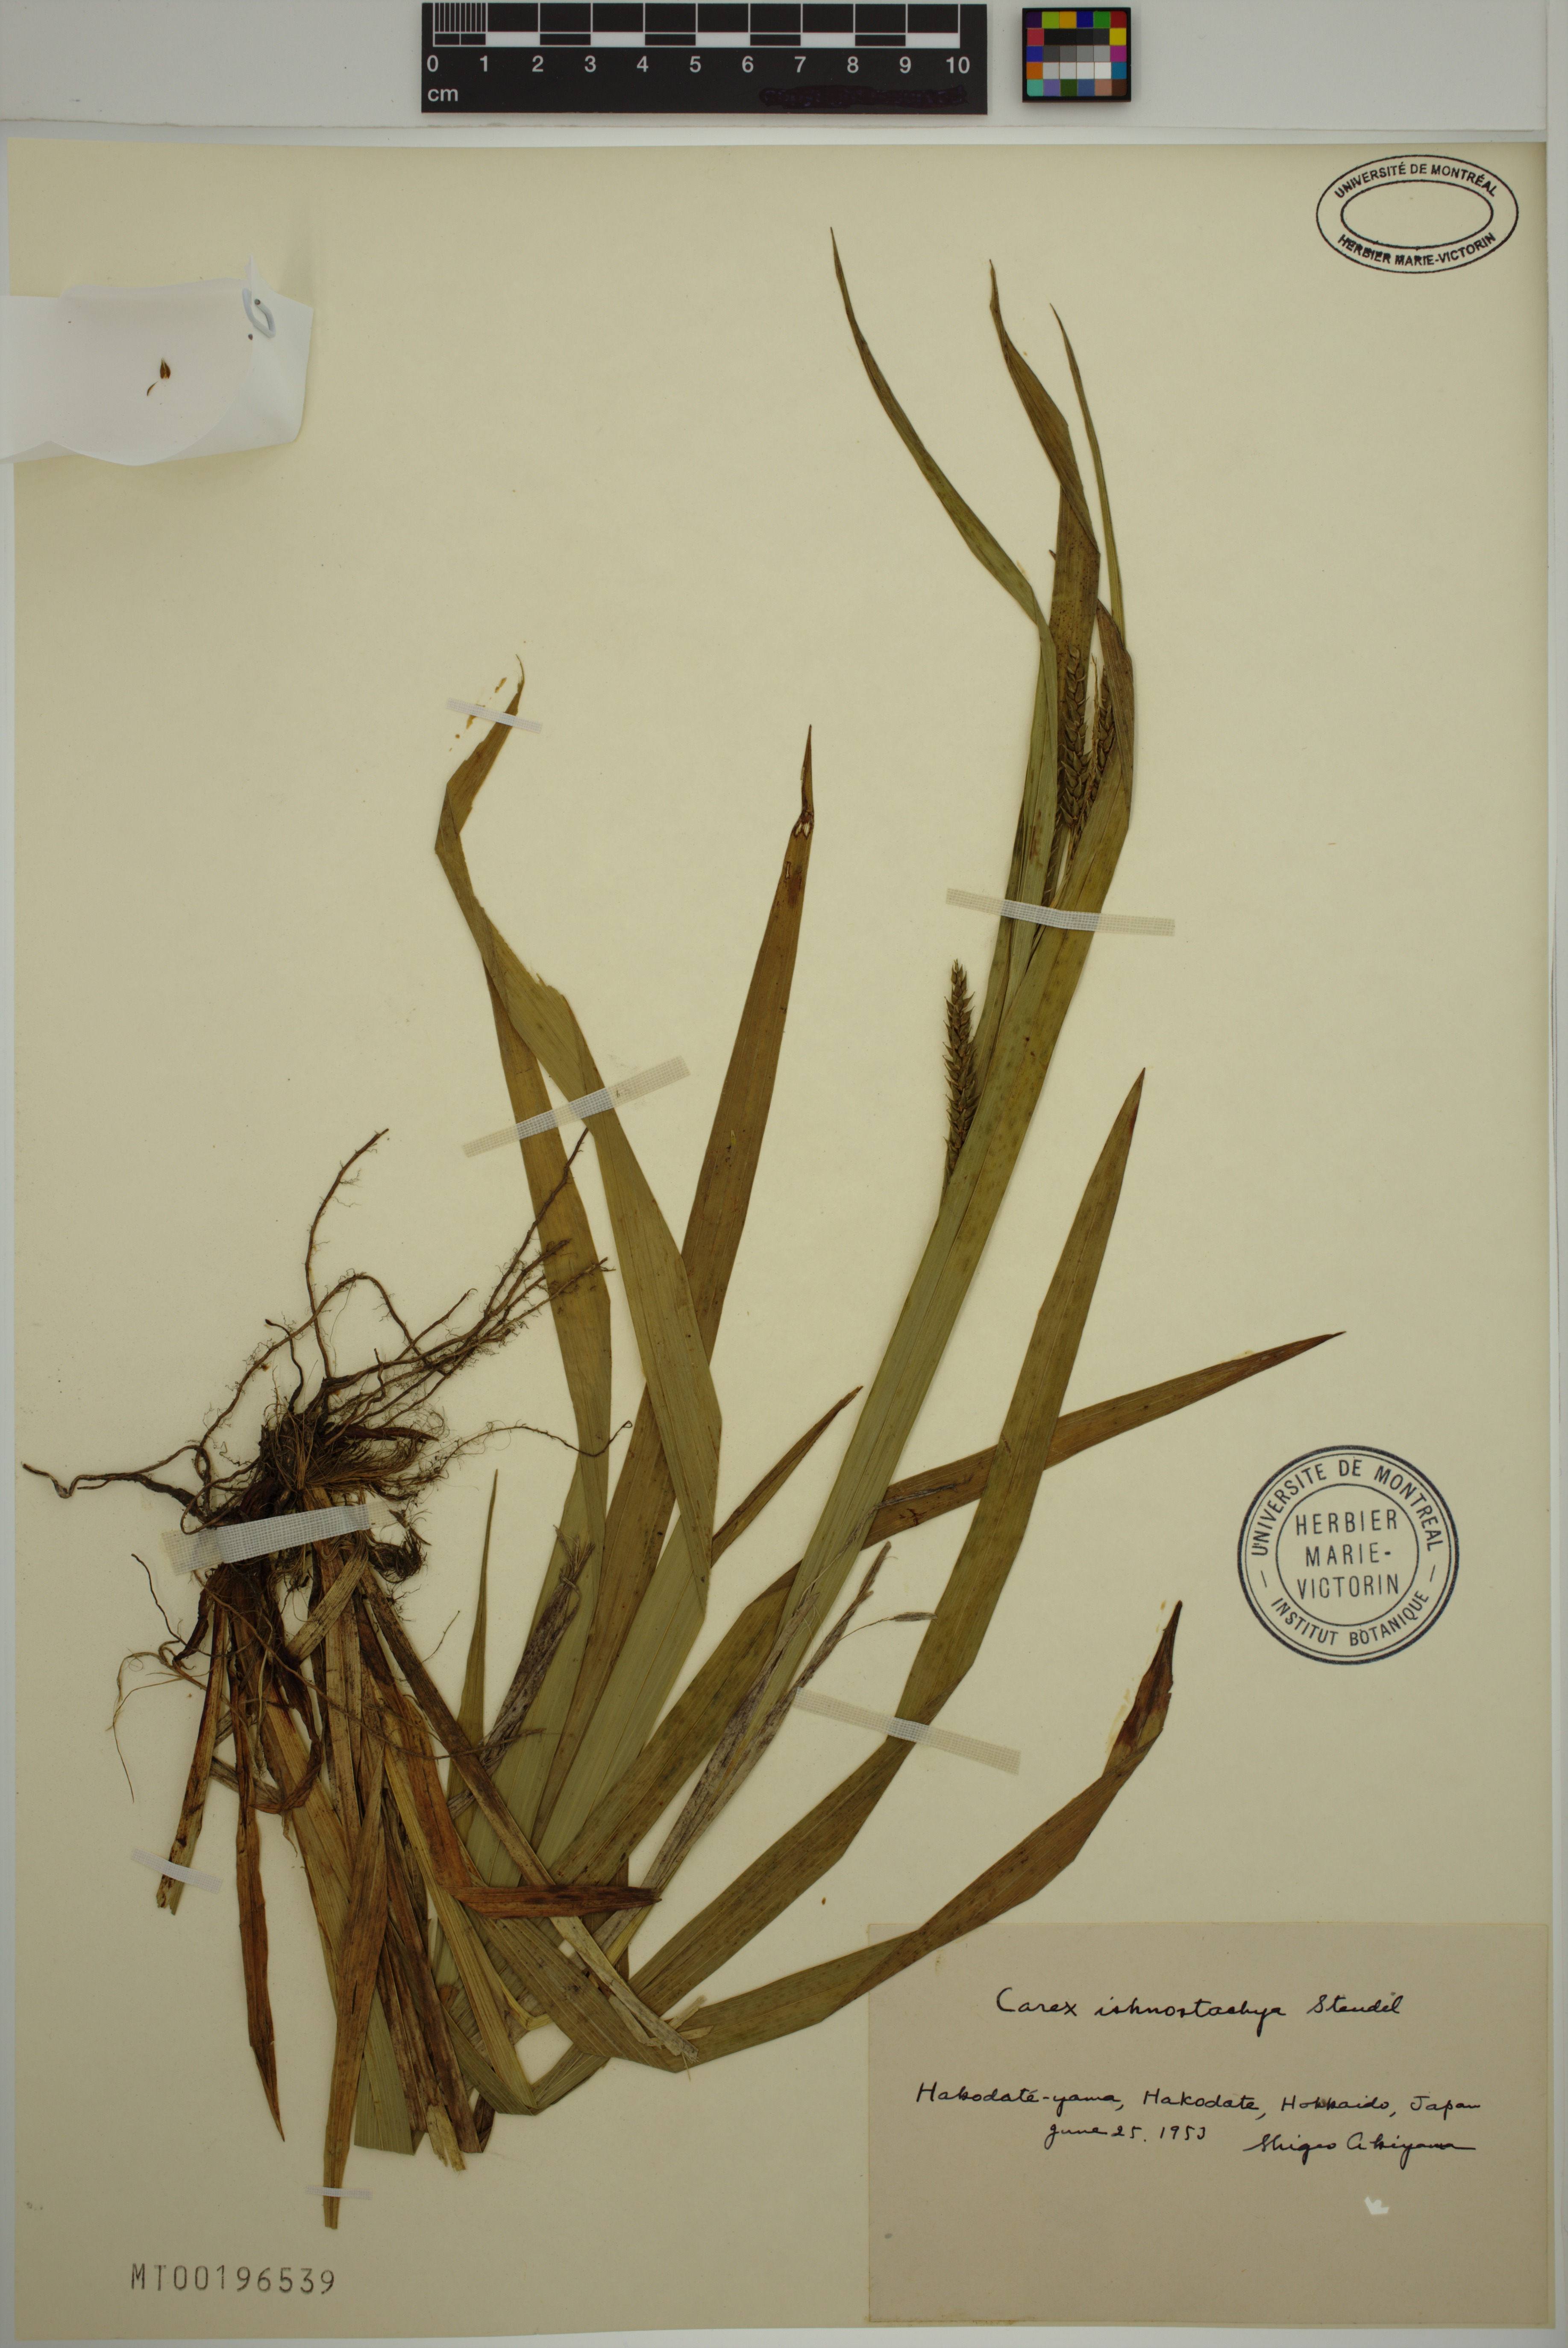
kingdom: Plantae
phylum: Tracheophyta
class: Liliopsida
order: Poales
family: Cyperaceae
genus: Carex
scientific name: Carex ischnostachya
